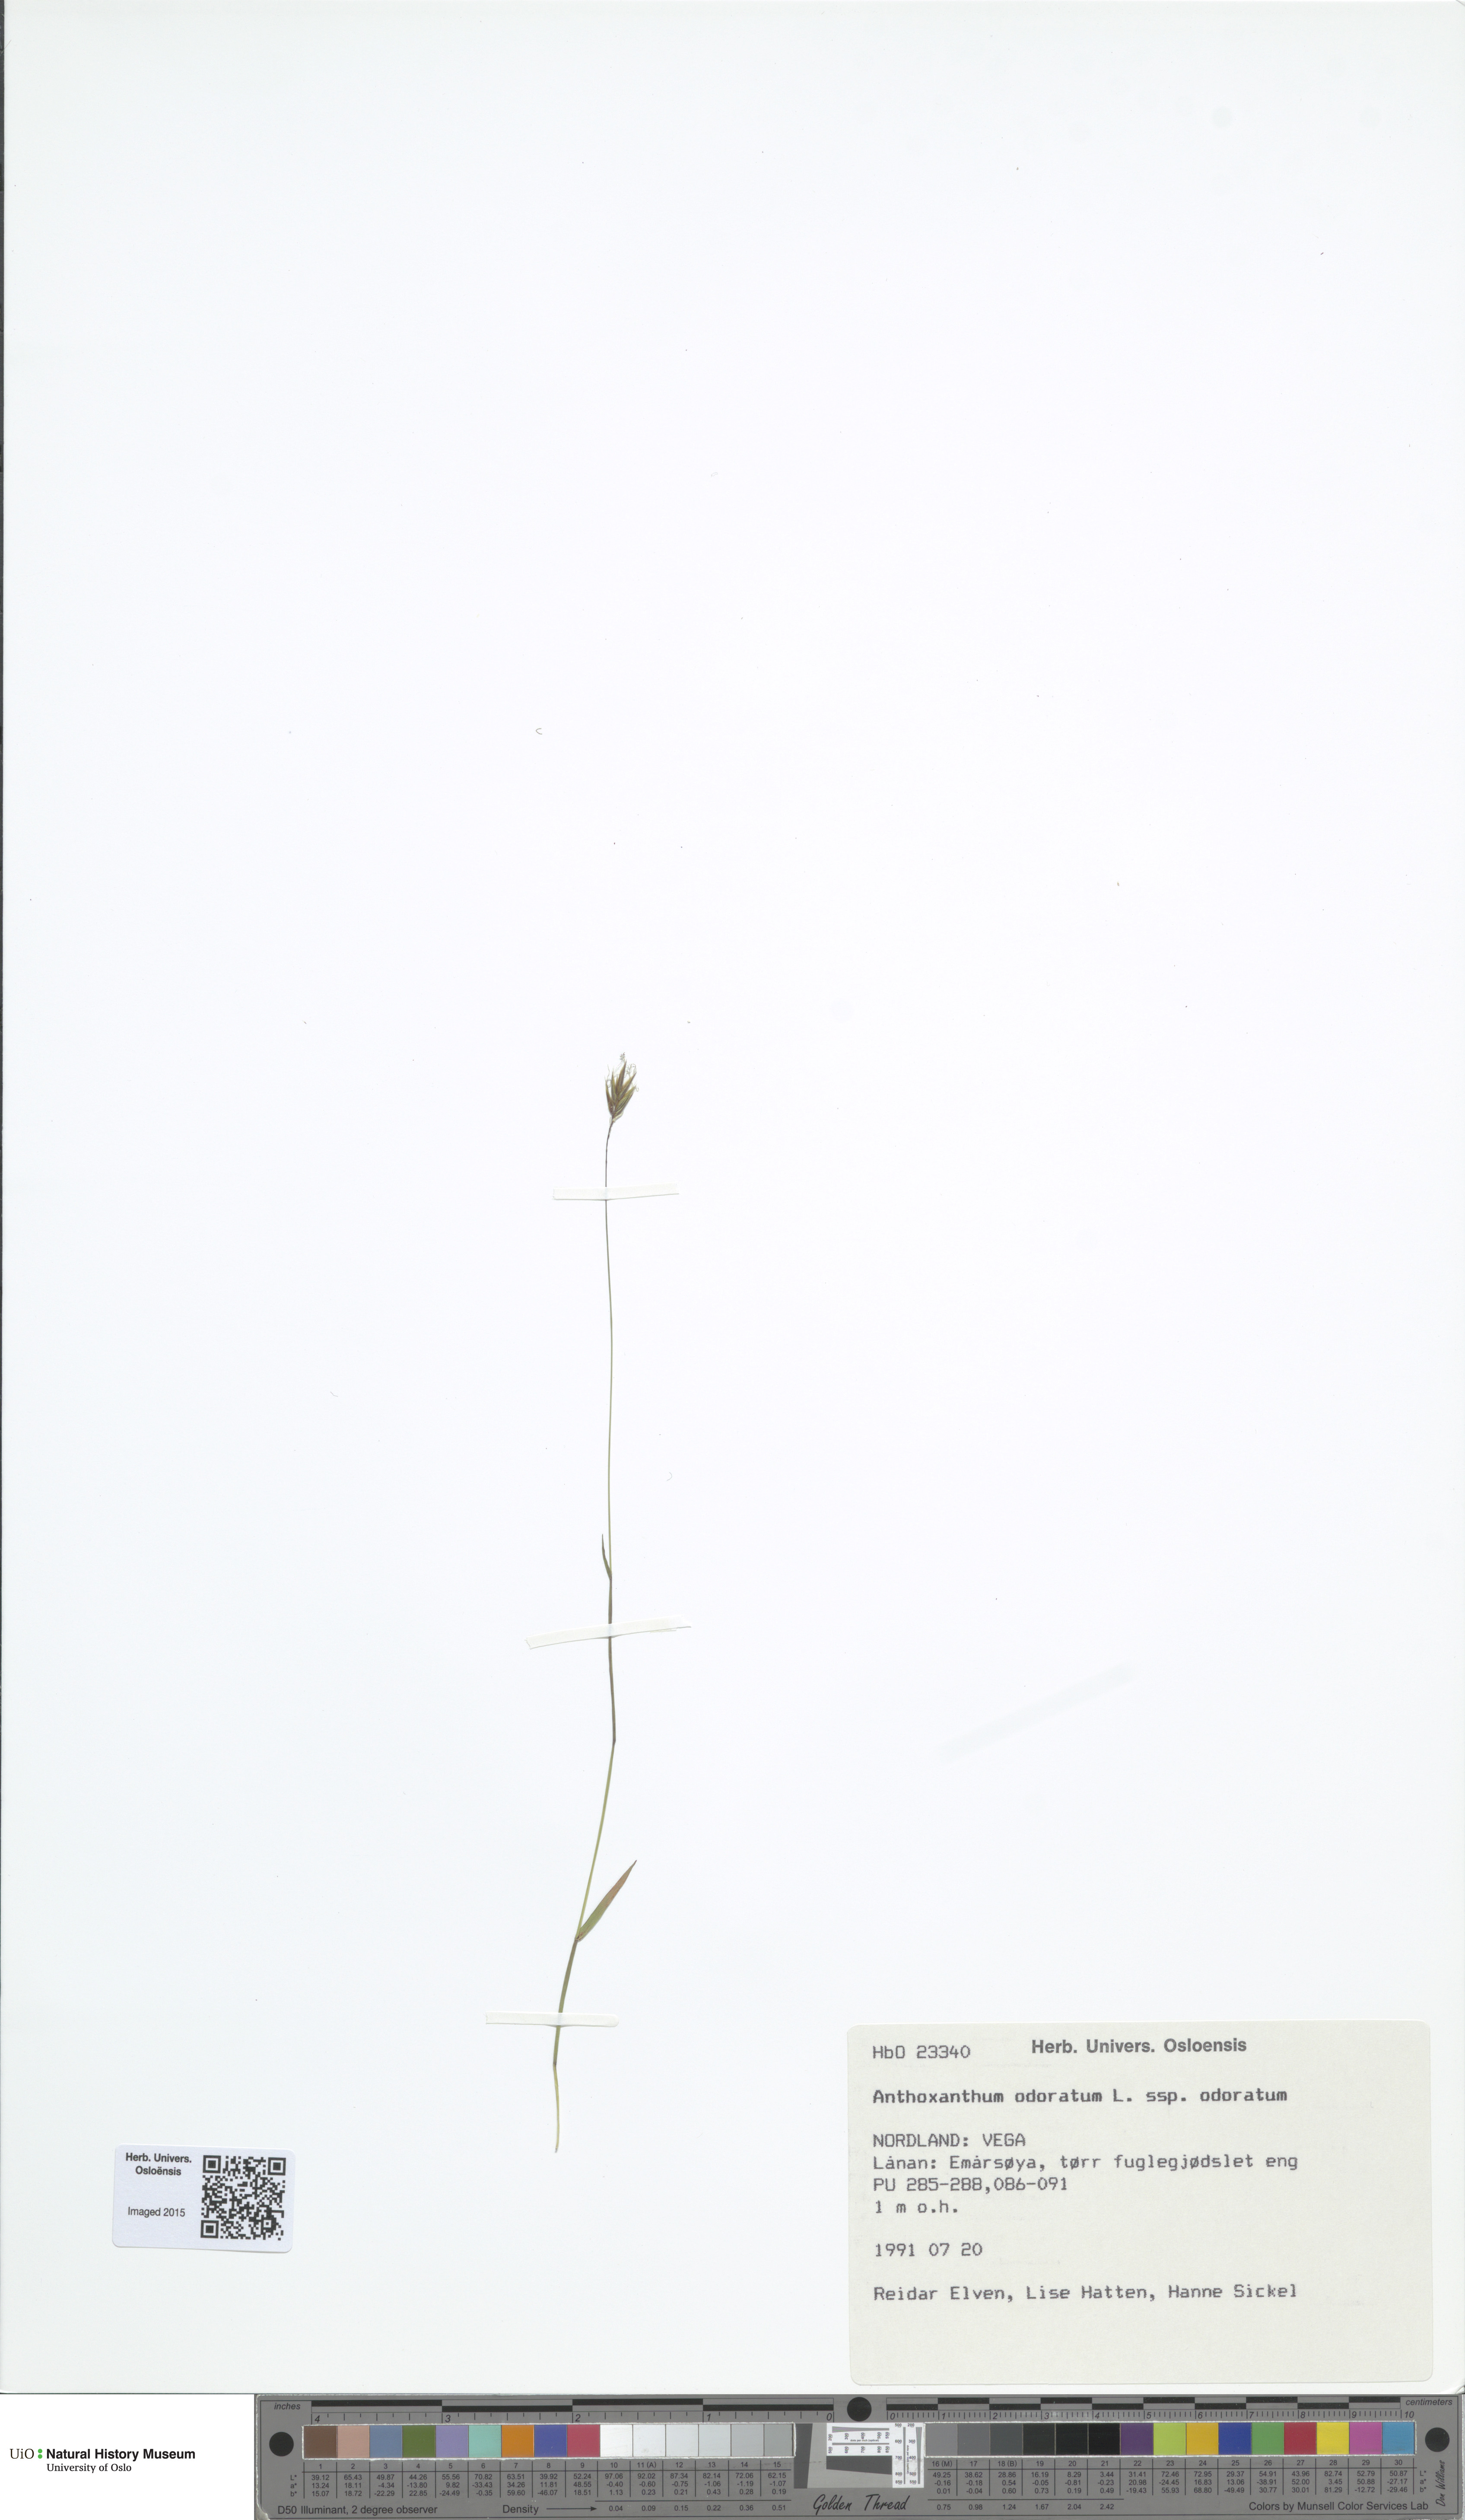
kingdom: Plantae
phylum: Tracheophyta
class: Liliopsida
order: Poales
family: Poaceae
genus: Anthoxanthum
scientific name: Anthoxanthum odoratum
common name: Sweet vernalgrass
